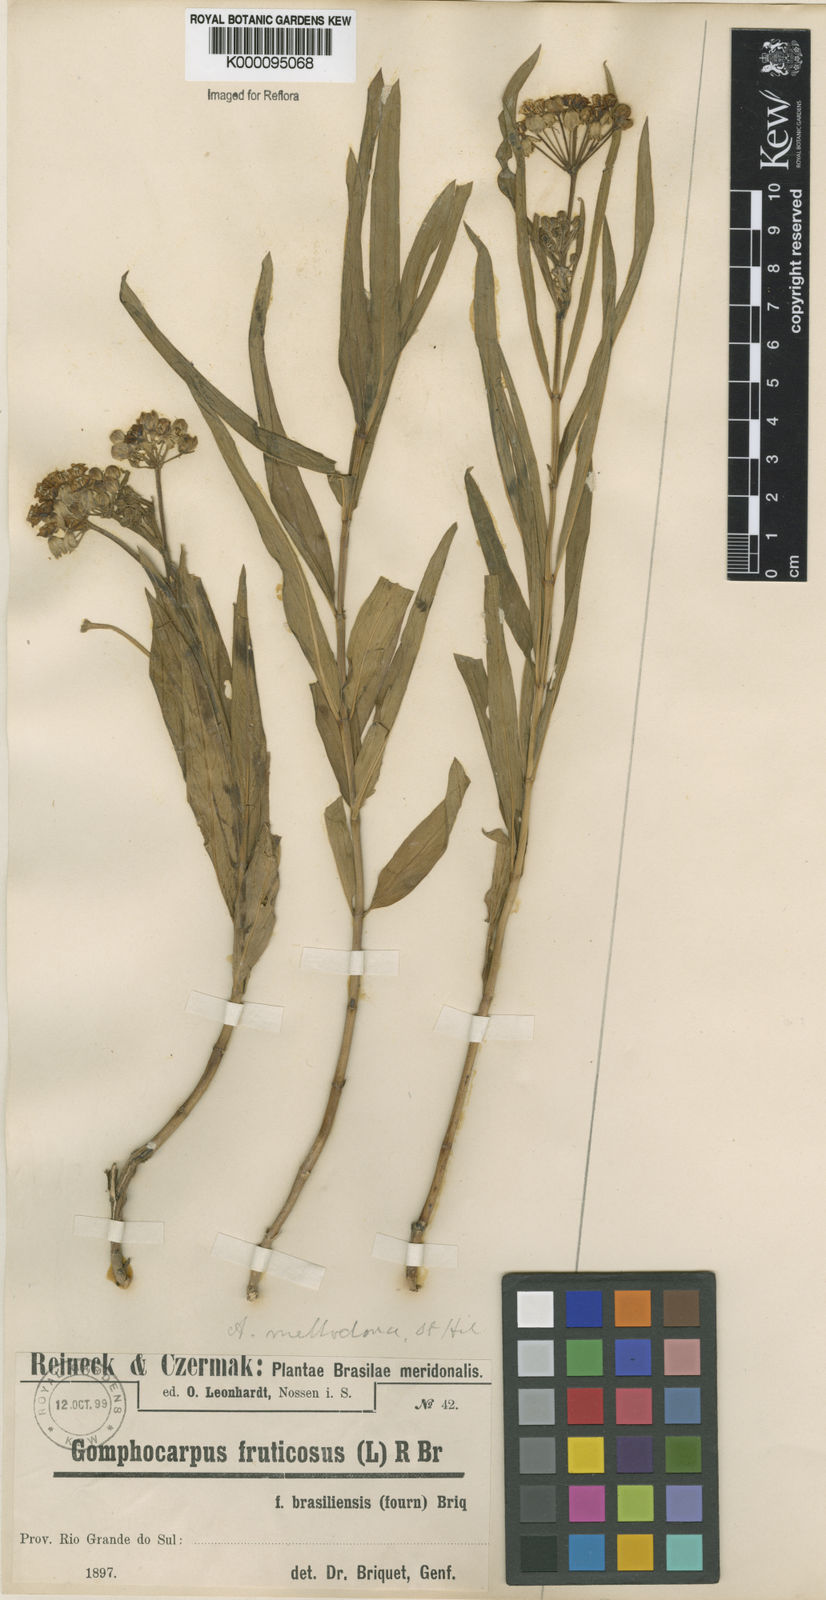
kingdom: Plantae
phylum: Tracheophyta
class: Magnoliopsida
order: Gentianales
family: Apocynaceae
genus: Asclepias
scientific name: Asclepias mellodora
